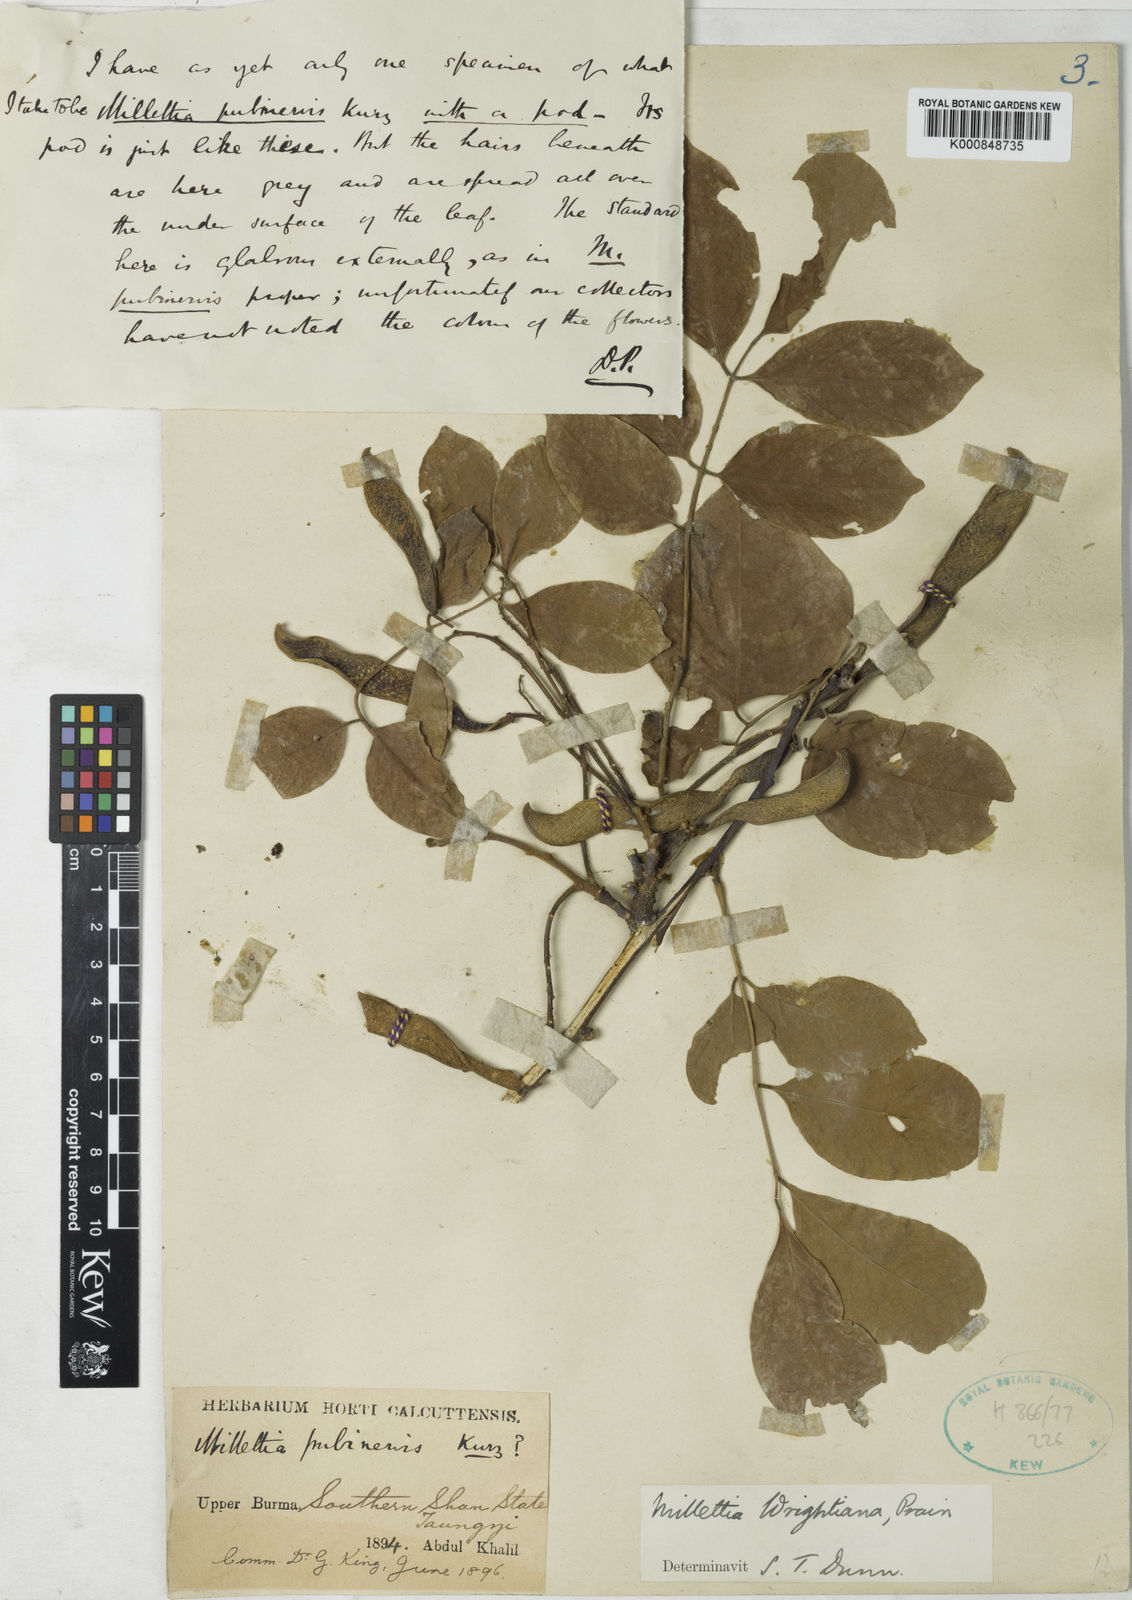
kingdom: Plantae
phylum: Tracheophyta
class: Magnoliopsida
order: Fabales
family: Fabaceae
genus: Millettia
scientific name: Millettia xylocarpa
